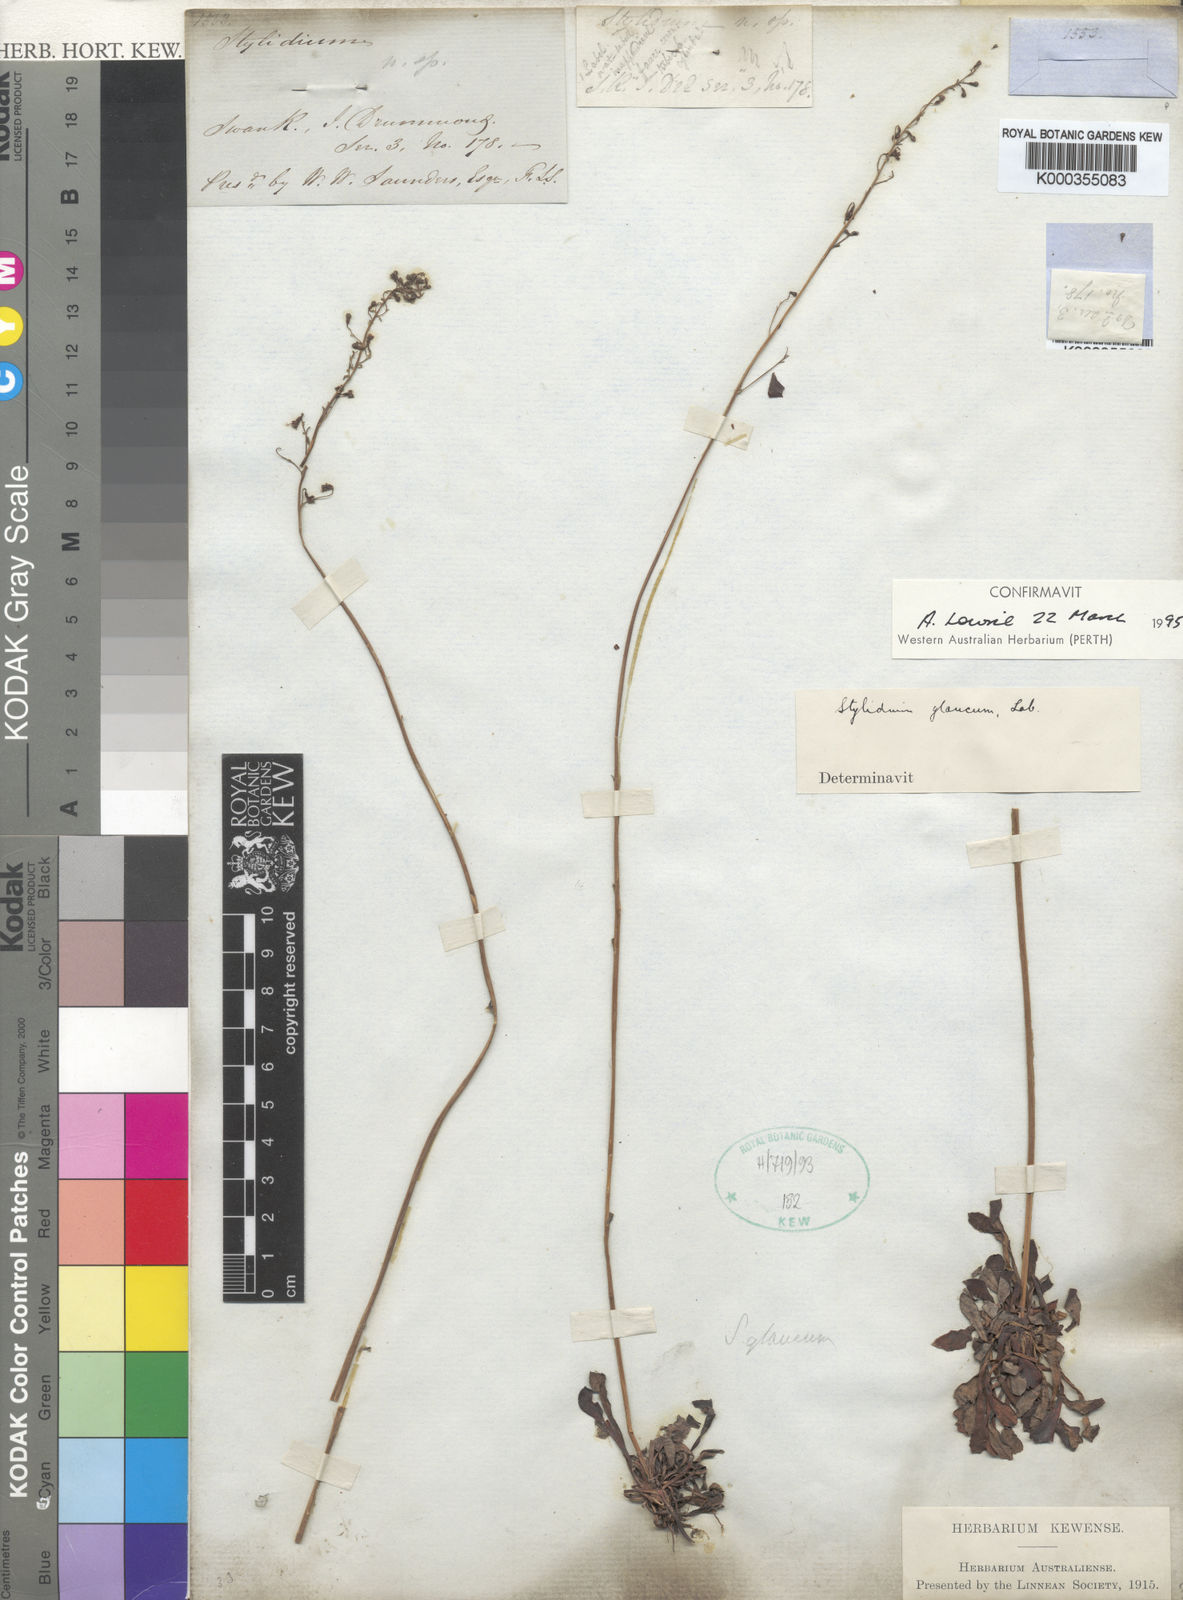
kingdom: Plantae
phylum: Tracheophyta
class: Magnoliopsida
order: Asterales
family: Stylidiaceae
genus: Stylidium
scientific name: Stylidium glaucum
